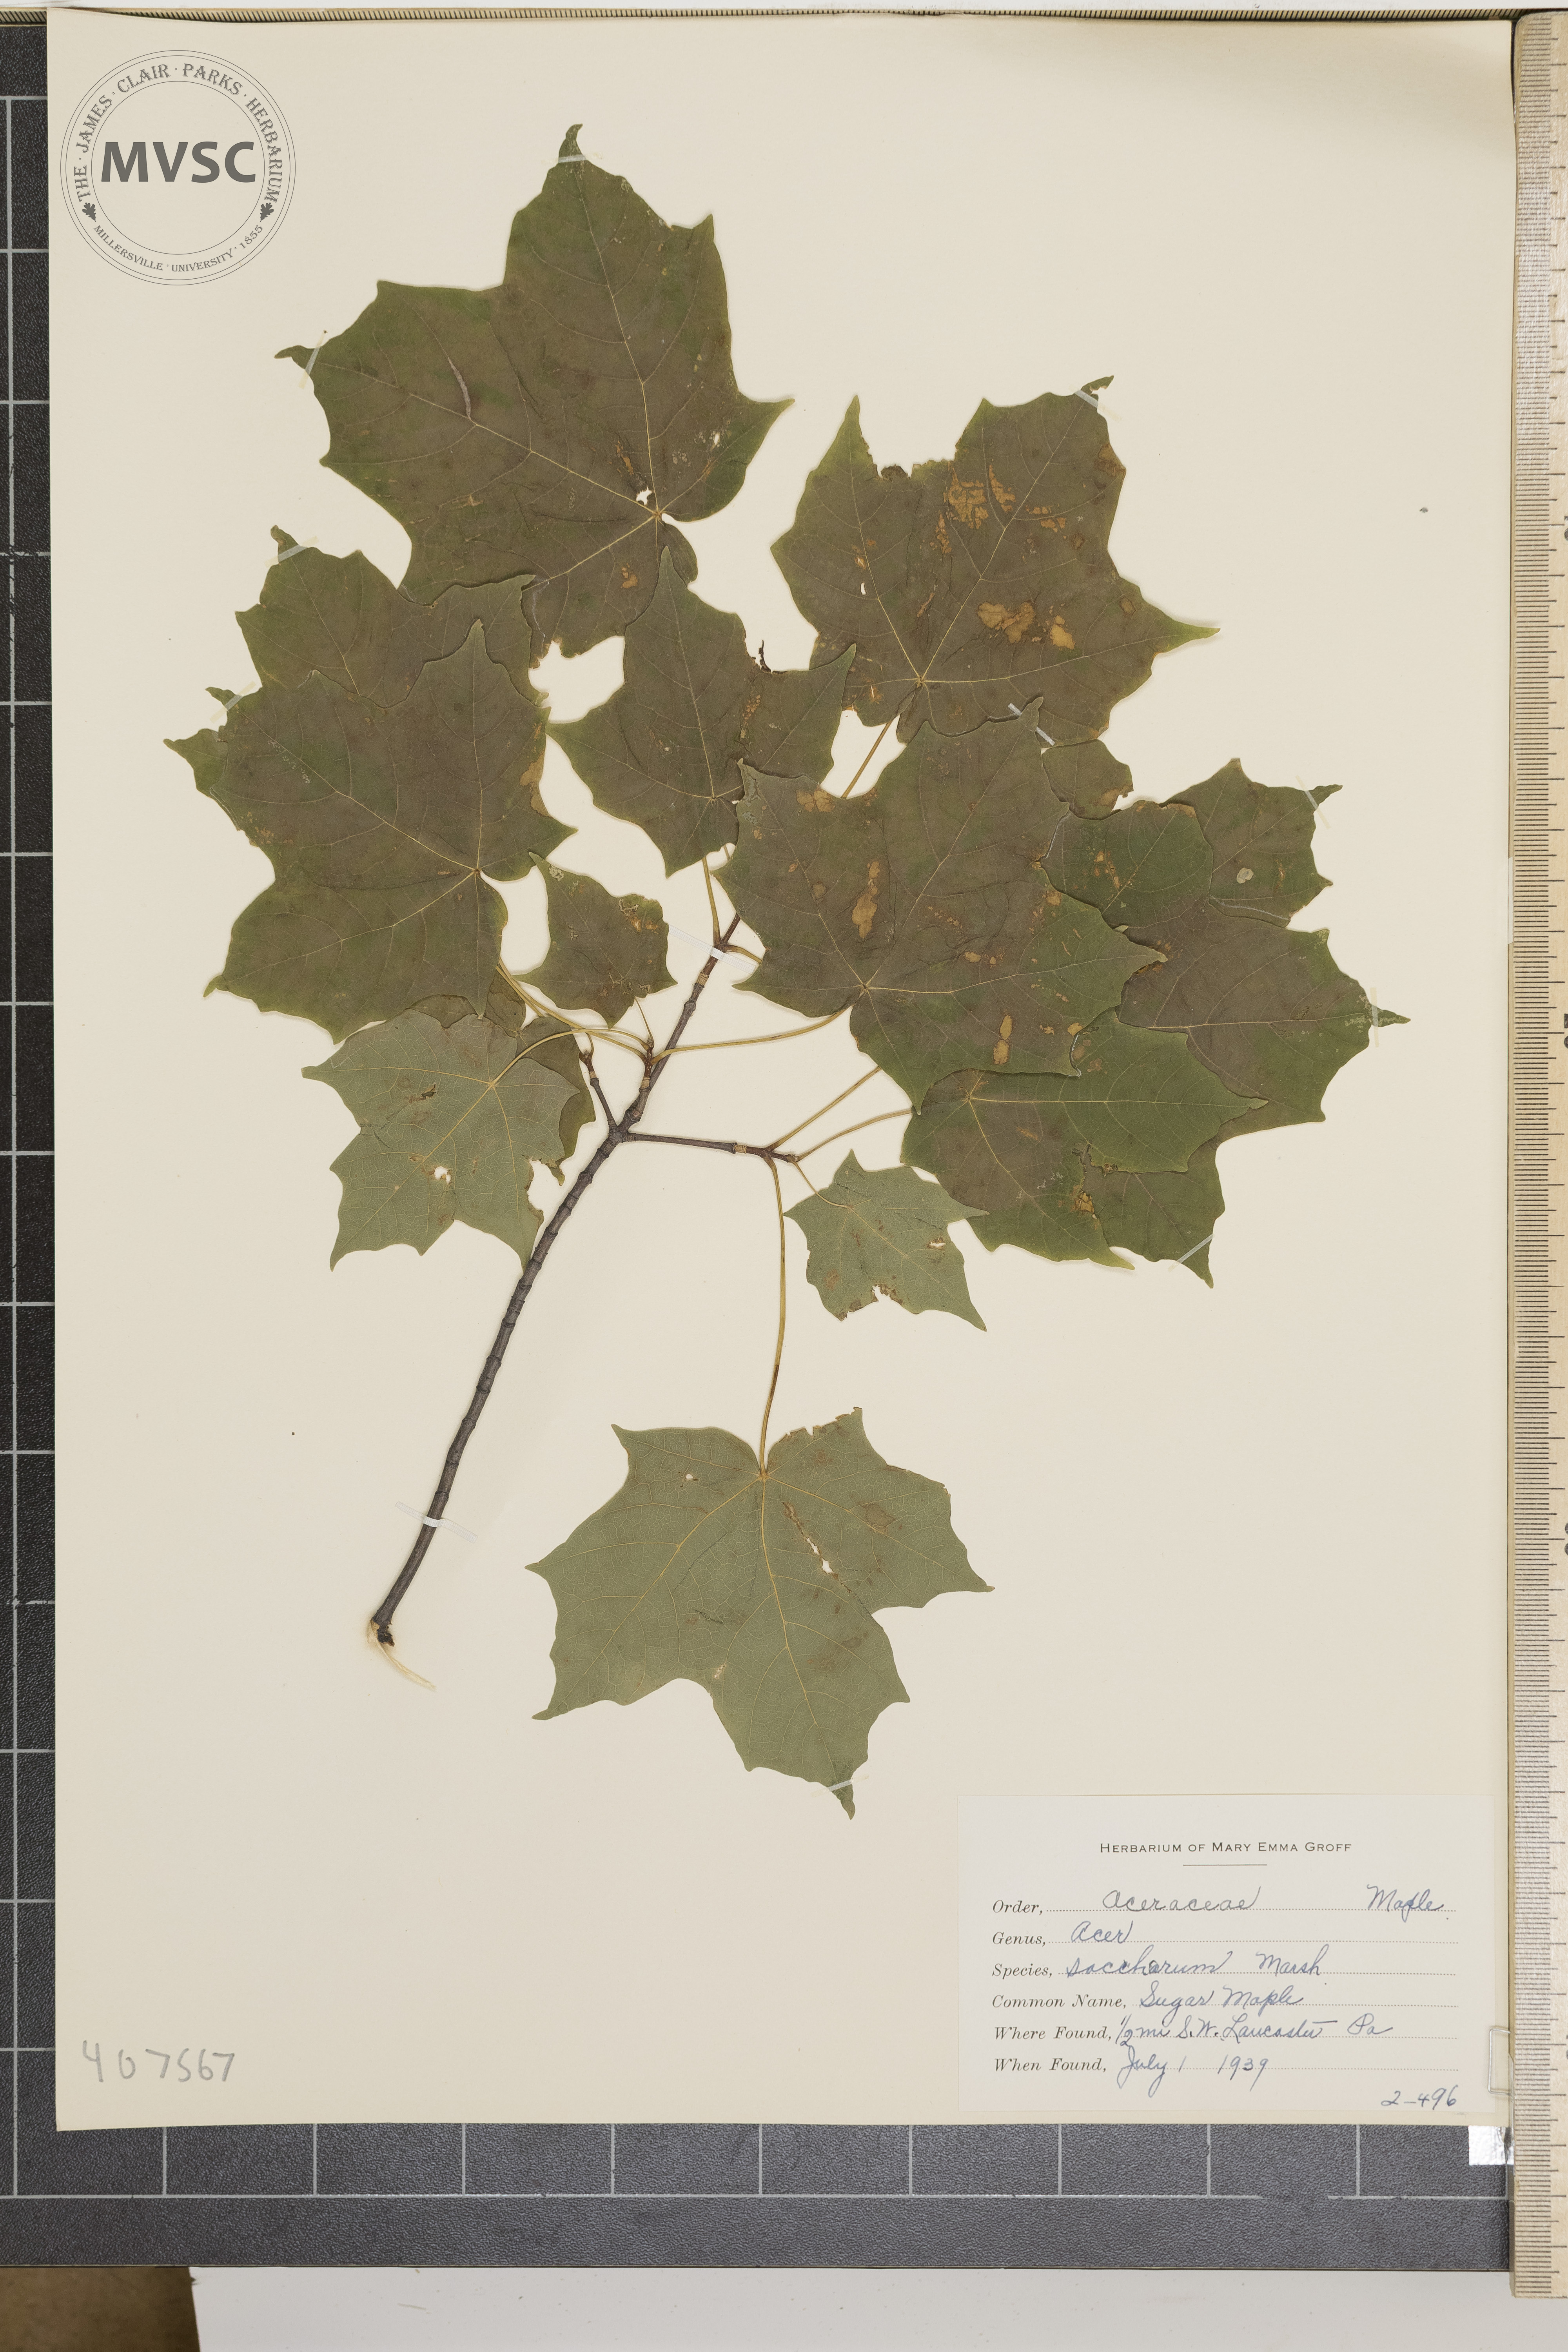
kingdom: Plantae
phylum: Tracheophyta
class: Magnoliopsida
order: Sapindales
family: Sapindaceae
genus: Acer
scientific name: Acer saccharum
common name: Sugar Maple
